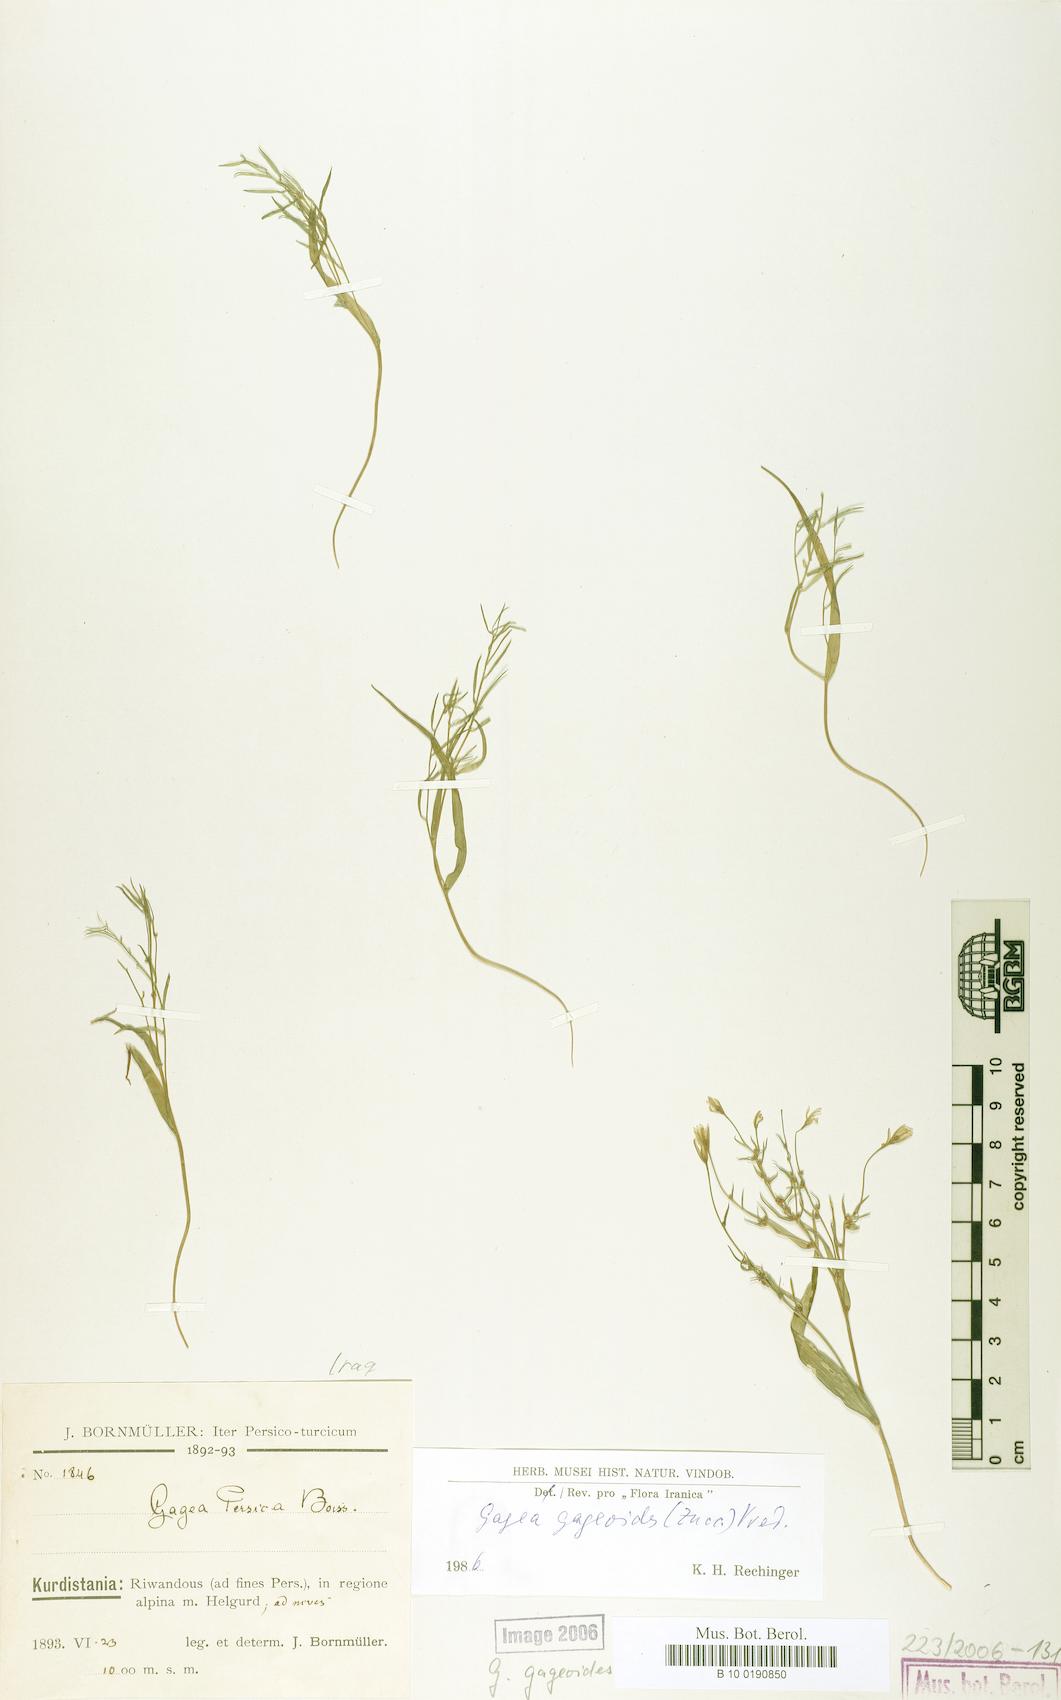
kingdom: Plantae
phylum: Tracheophyta
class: Liliopsida
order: Liliales
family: Liliaceae
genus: Gagea
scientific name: Gagea gageoides
